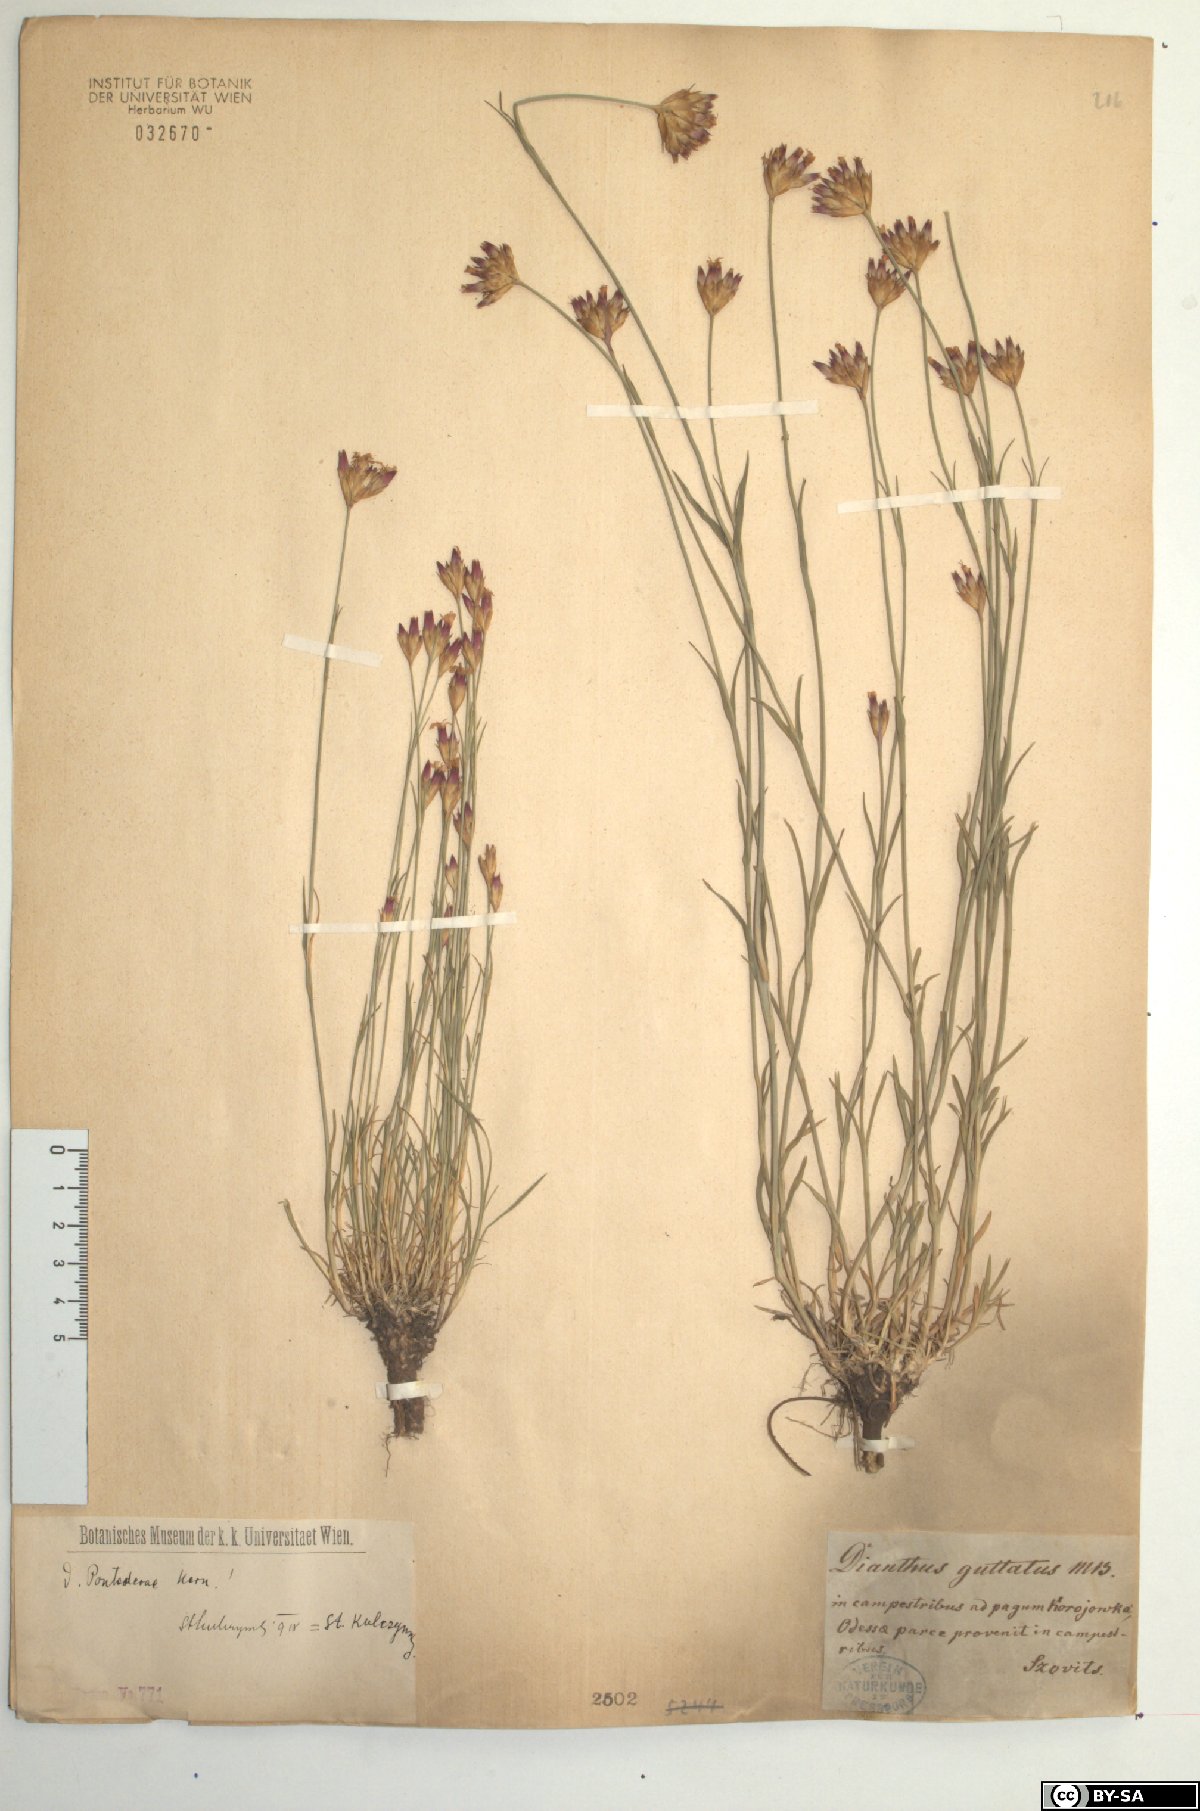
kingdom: Plantae
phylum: Tracheophyta
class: Magnoliopsida
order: Caryophyllales
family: Caryophyllaceae
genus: Dianthus
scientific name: Dianthus pontederae
